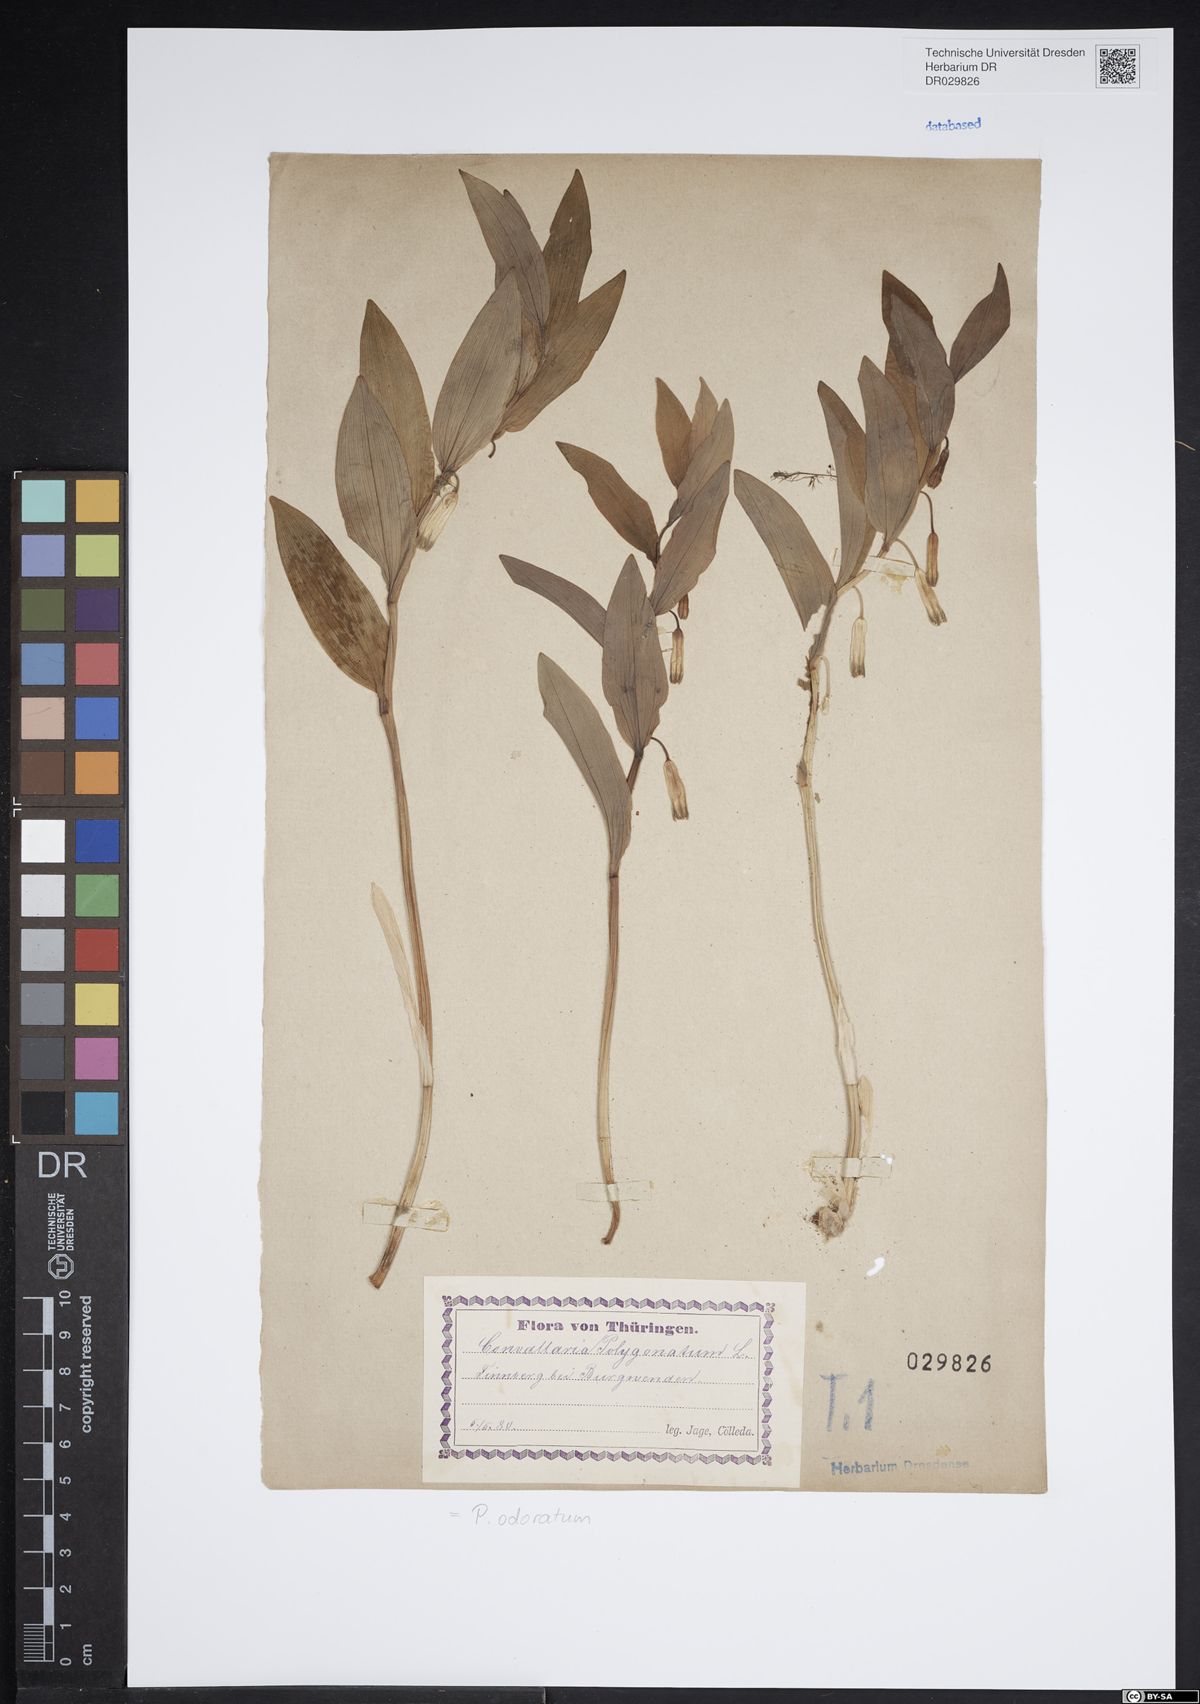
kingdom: Plantae
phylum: Tracheophyta
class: Liliopsida
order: Asparagales
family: Asparagaceae
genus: Polygonatum
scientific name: Polygonatum odoratum
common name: Angular solomon's-seal
